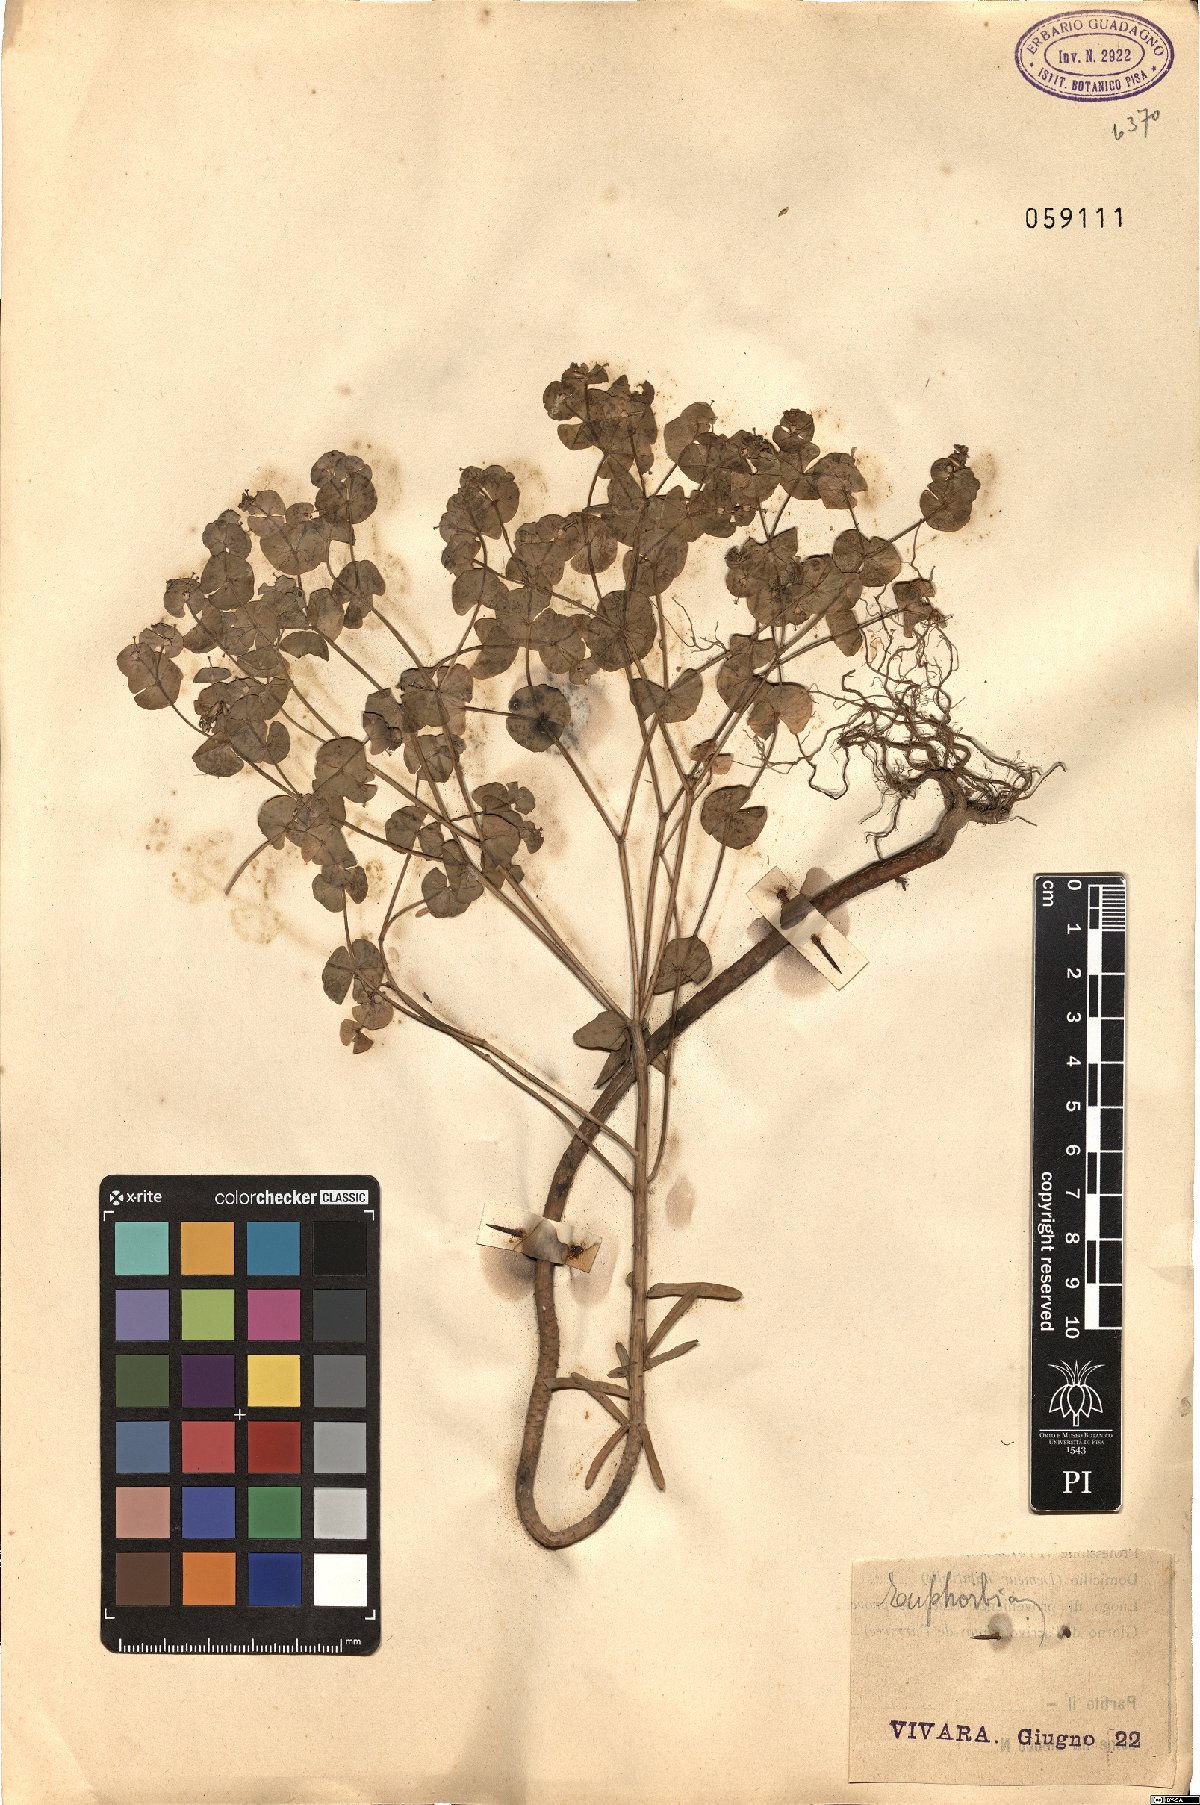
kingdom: Plantae
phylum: Tracheophyta
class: Magnoliopsida
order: Malpighiales
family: Euphorbiaceae
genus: Euphorbia
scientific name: Euphorbia
